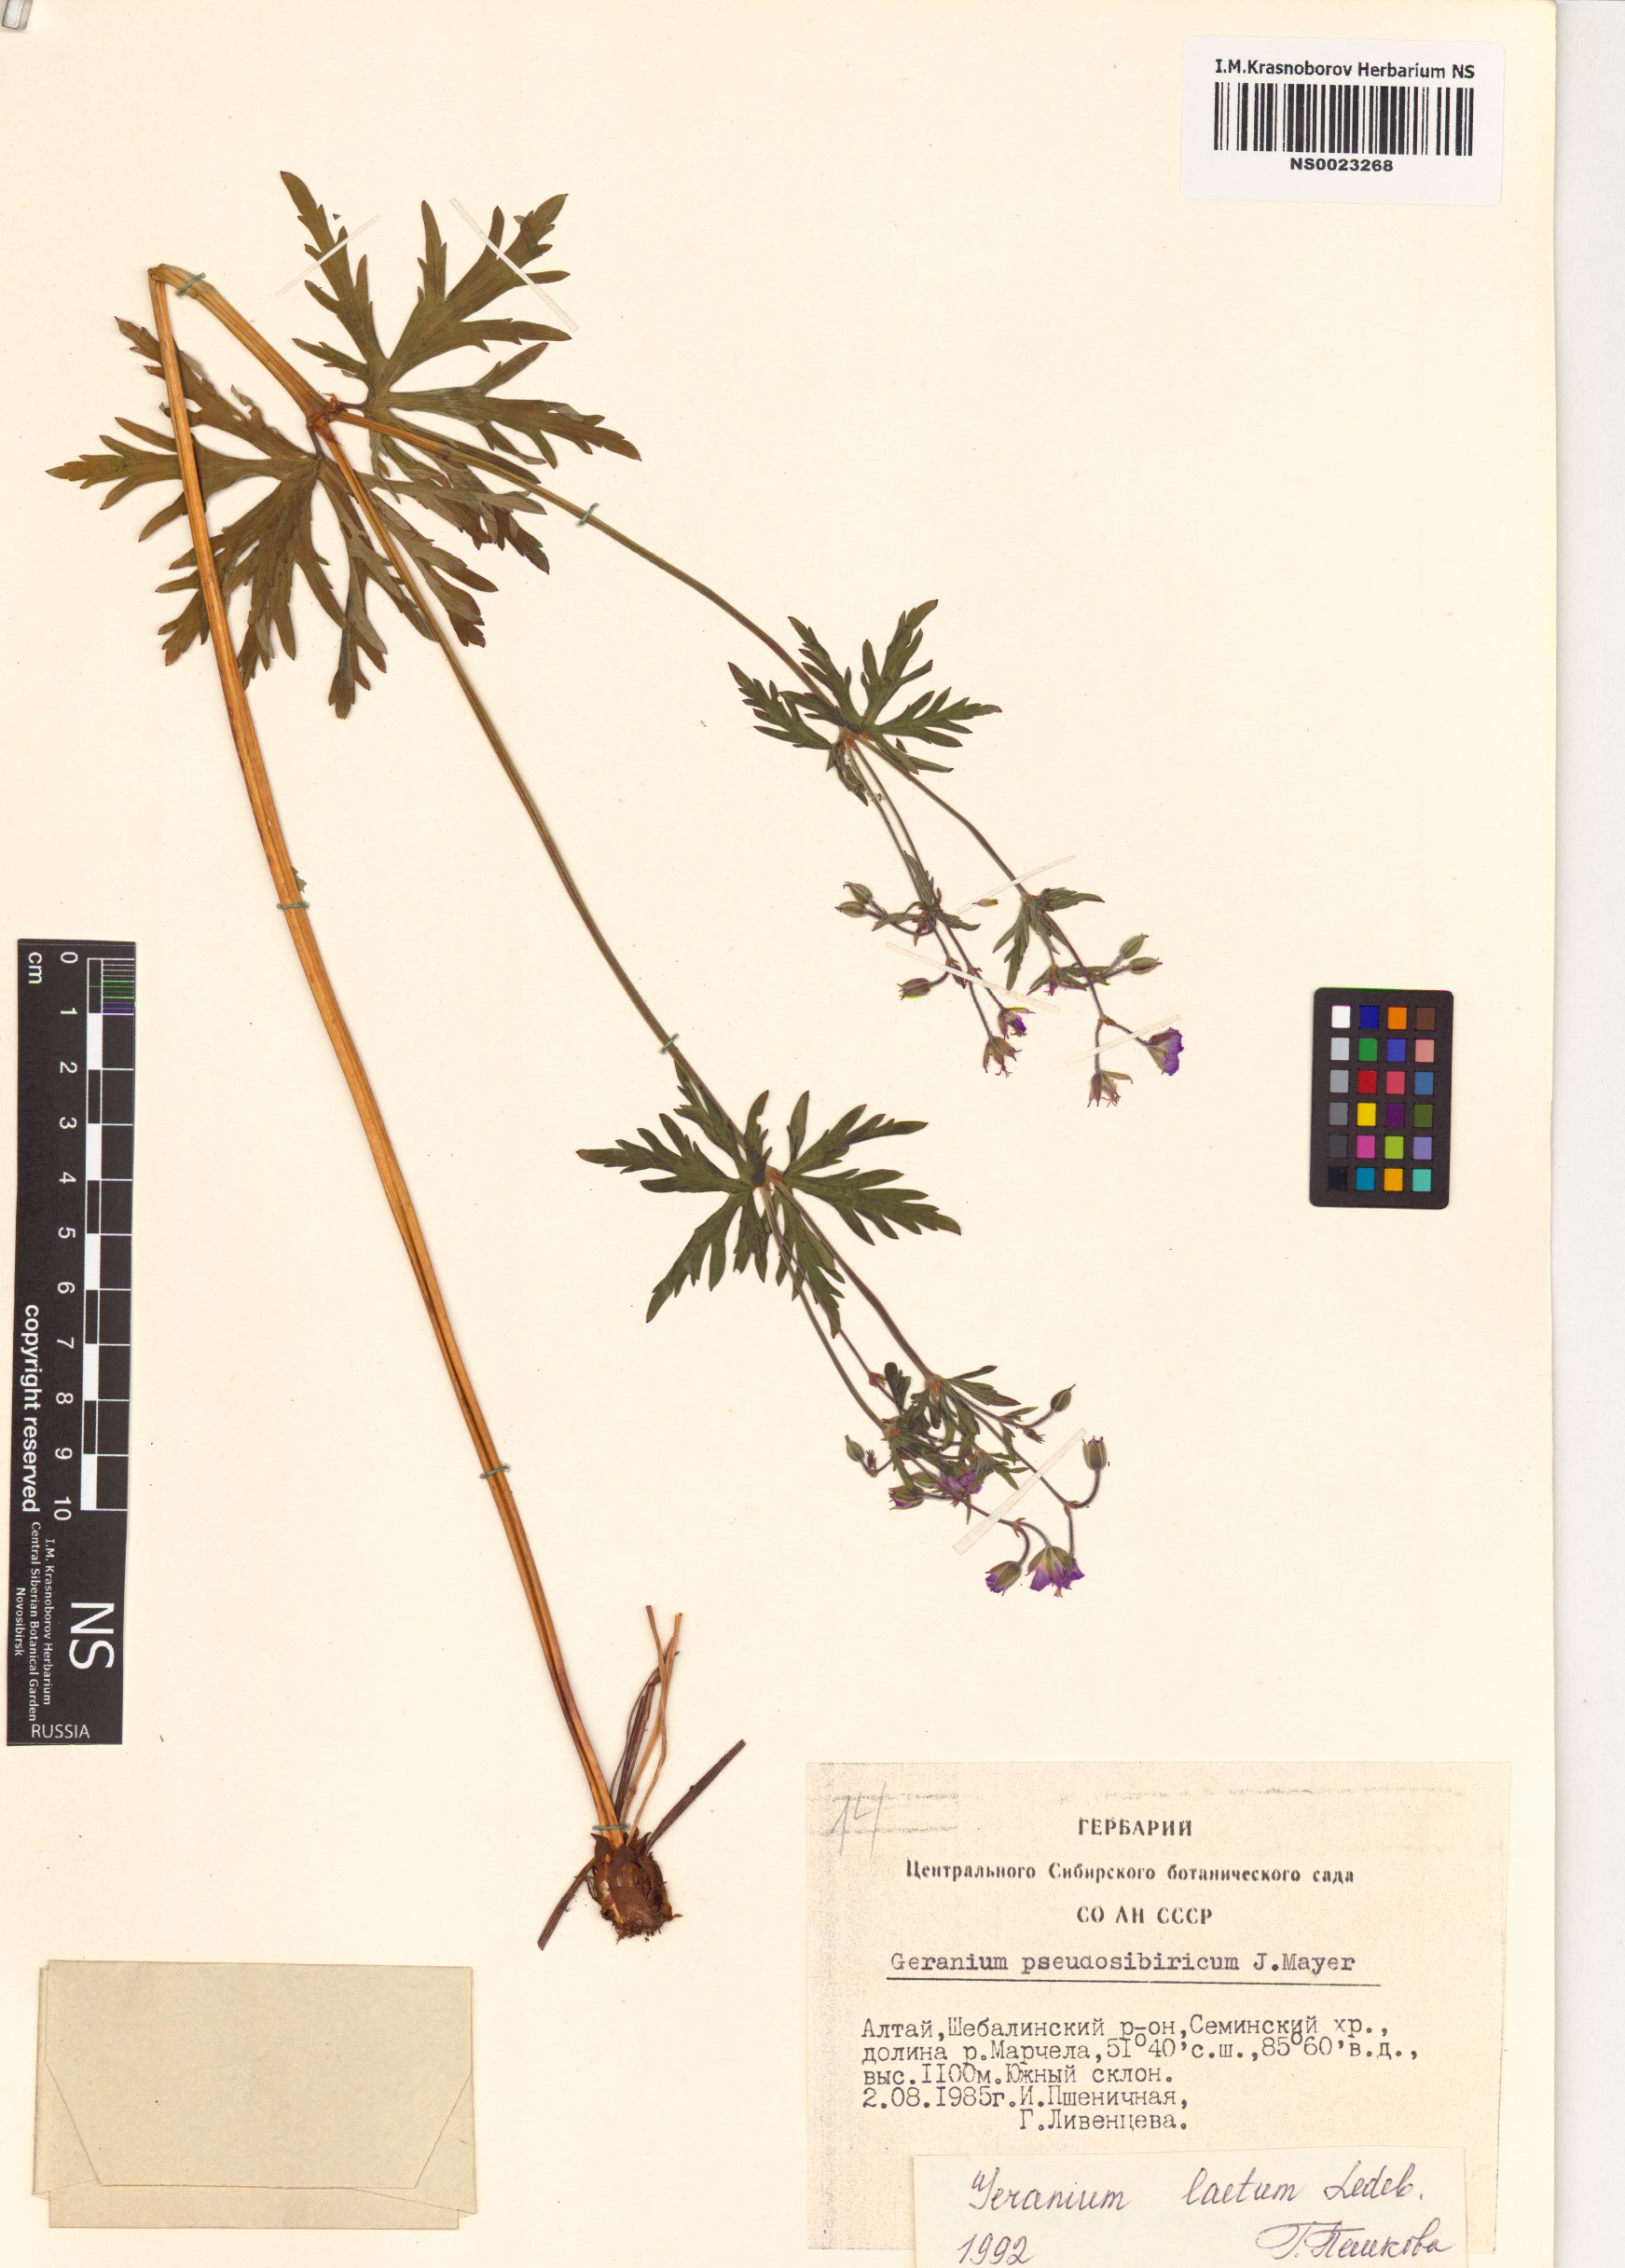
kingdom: Plantae
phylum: Tracheophyta
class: Magnoliopsida
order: Geraniales
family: Geraniaceae
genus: Geranium
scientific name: Geranium pseudosibiricum
